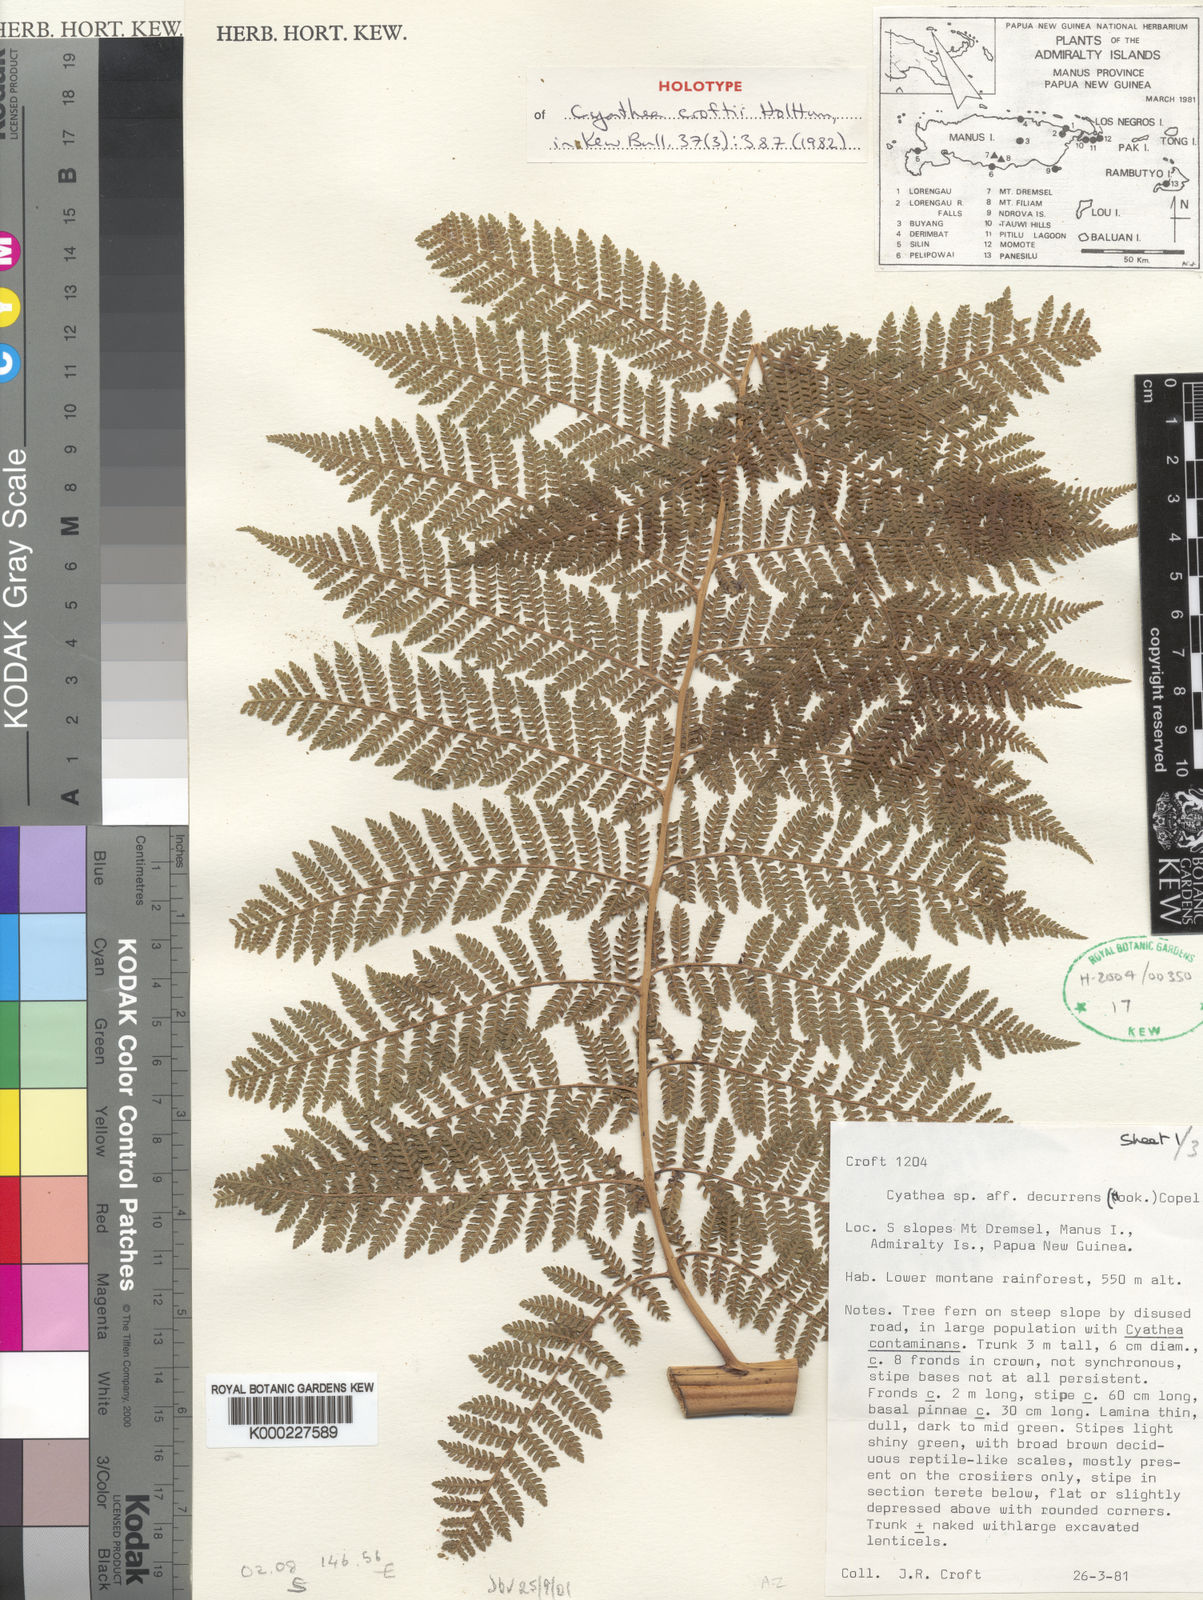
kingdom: Plantae
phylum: Tracheophyta
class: Polypodiopsida
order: Cyatheales
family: Cyatheaceae
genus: Cyathea
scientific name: Cyathea croftii
